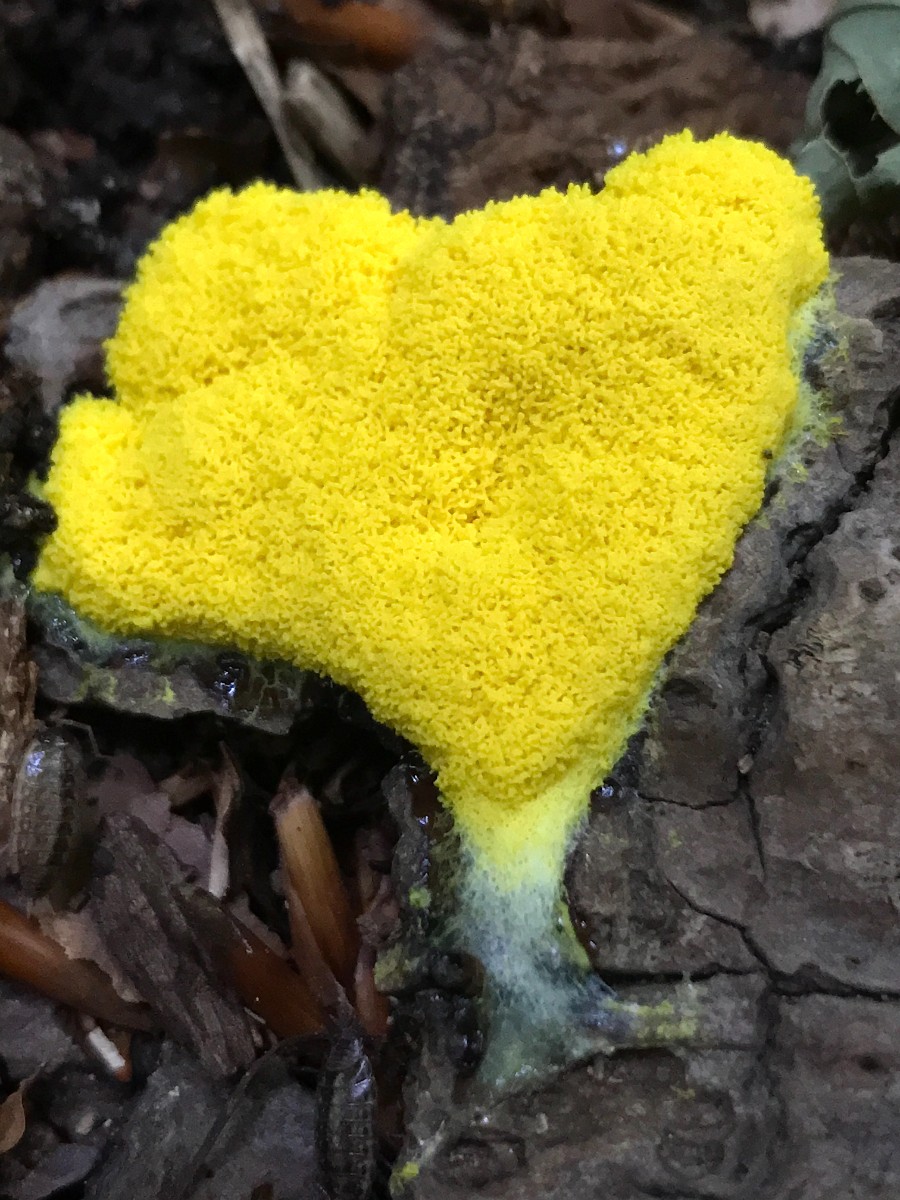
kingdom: Protozoa
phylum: Mycetozoa
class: Myxomycetes
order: Physarales
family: Physaraceae
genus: Fuligo
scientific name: Fuligo septica
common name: gul troldsmør
